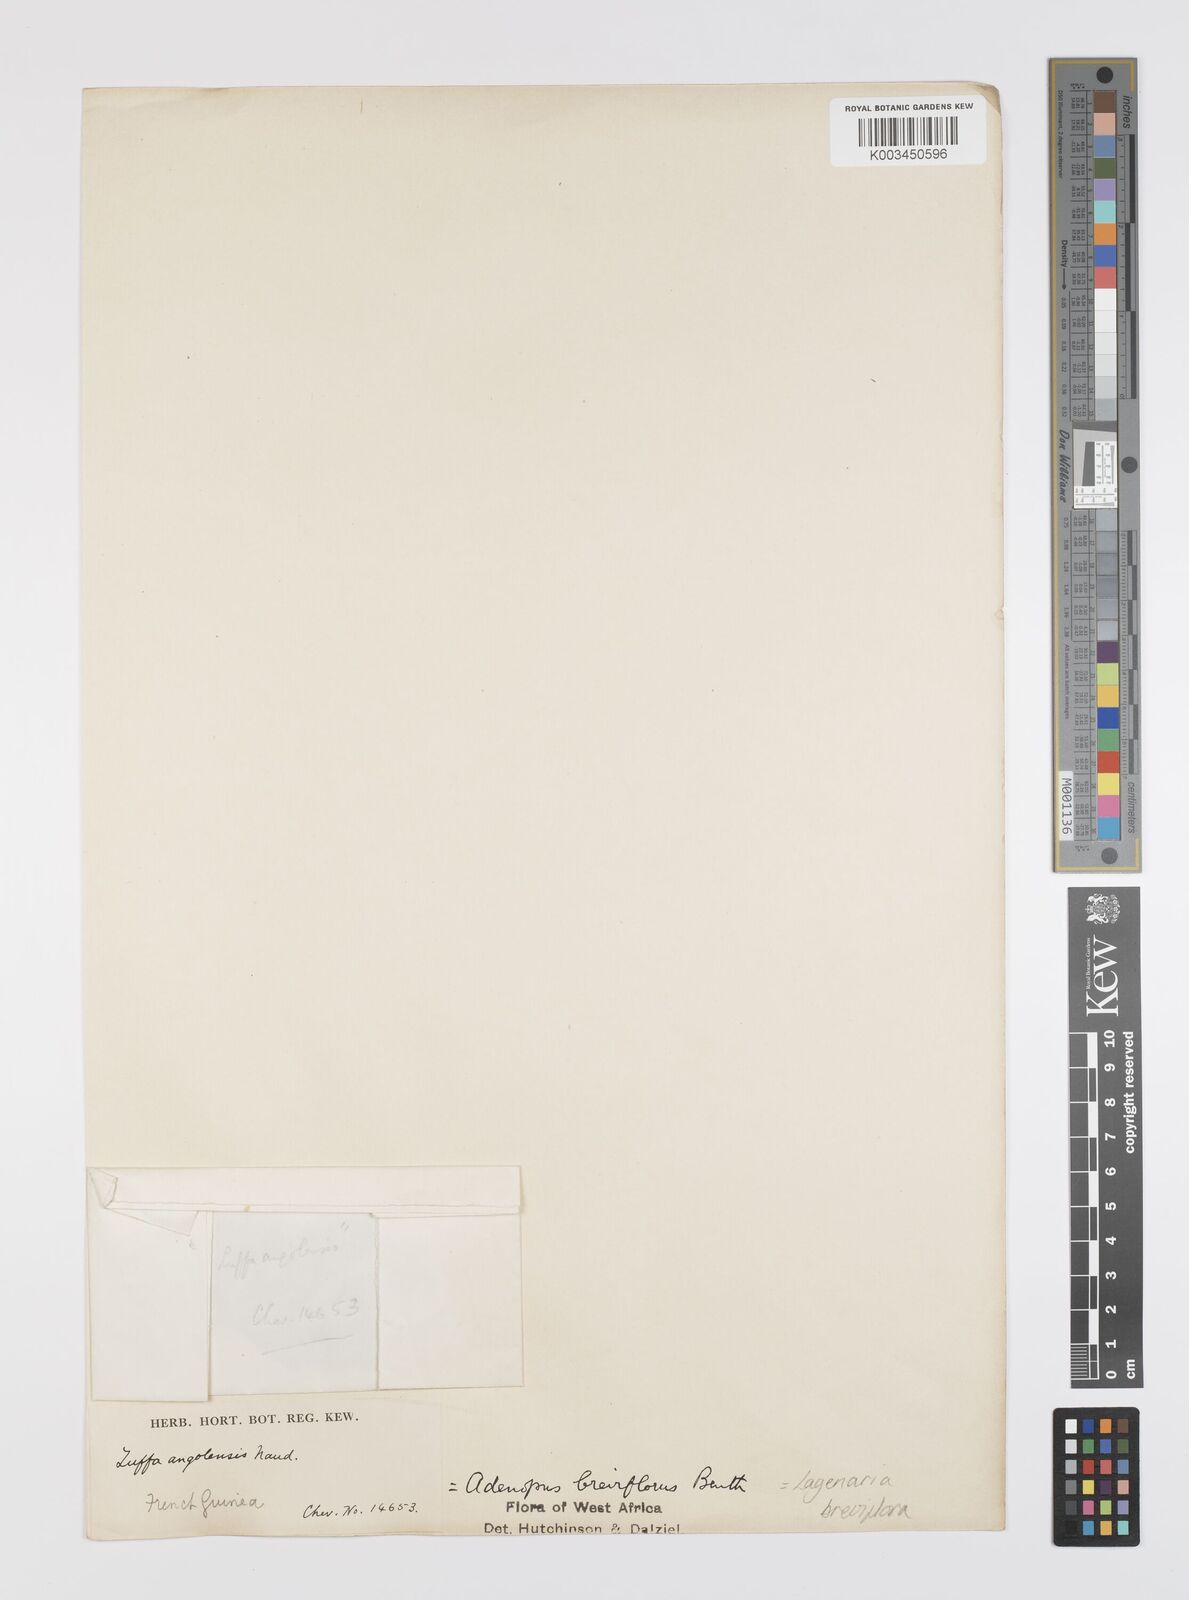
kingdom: Plantae
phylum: Tracheophyta
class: Magnoliopsida
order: Cucurbitales
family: Cucurbitaceae
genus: Lagenaria
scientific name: Lagenaria breviflora
